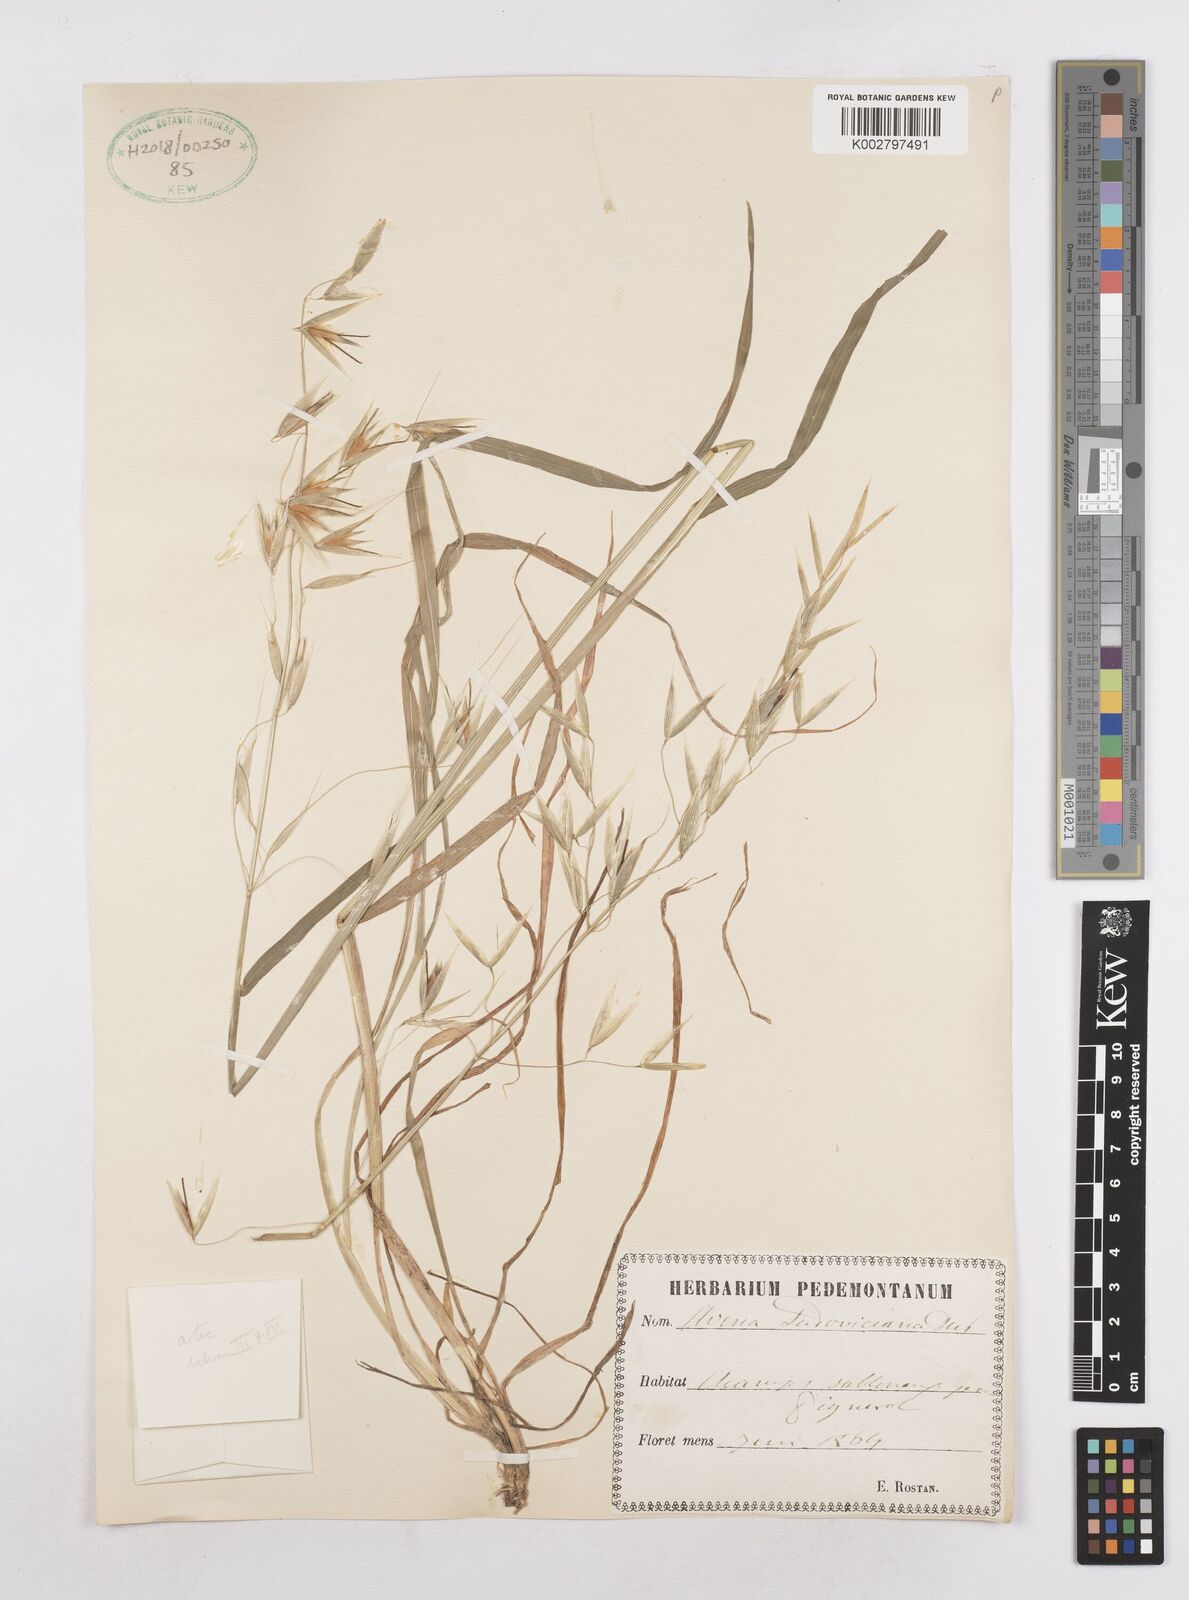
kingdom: Plantae
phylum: Tracheophyta
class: Liliopsida
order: Poales
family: Poaceae
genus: Avena
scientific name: Avena fatua
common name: Wild oat
